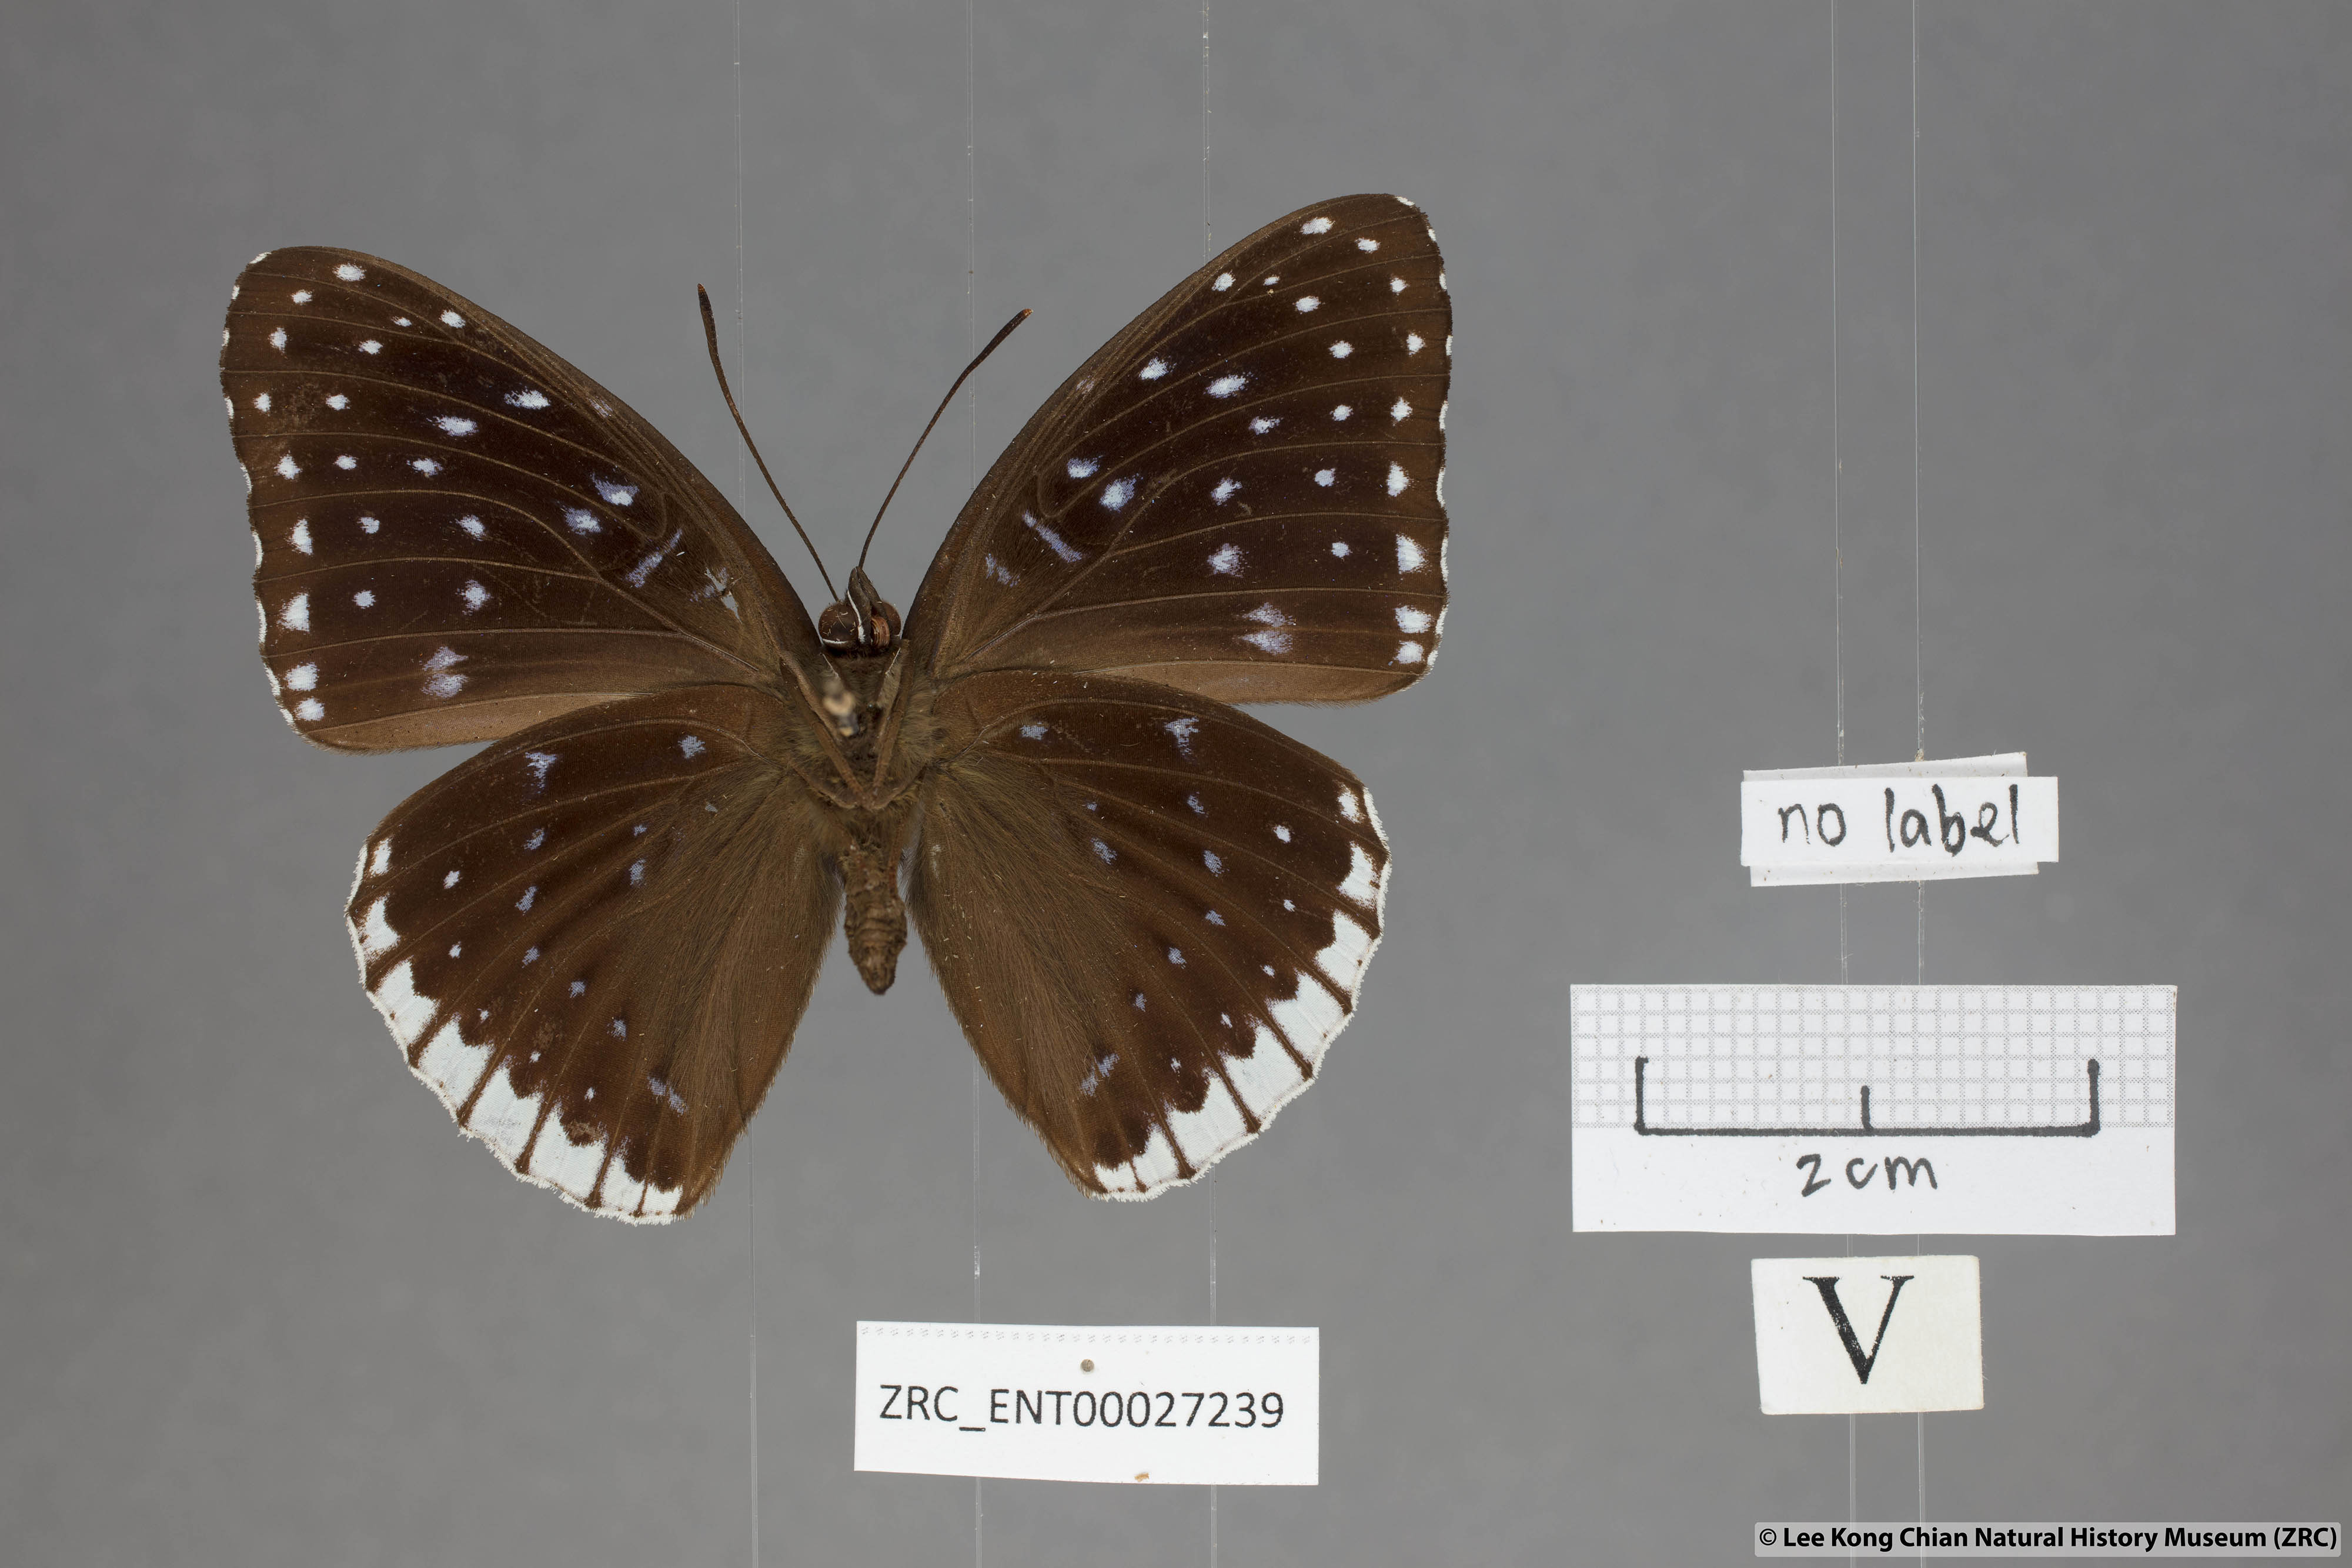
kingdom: Animalia
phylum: Arthropoda
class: Insecta
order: Lepidoptera
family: Nymphalidae
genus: Stibochiona
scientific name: Stibochiona nicea
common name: Popinjay
